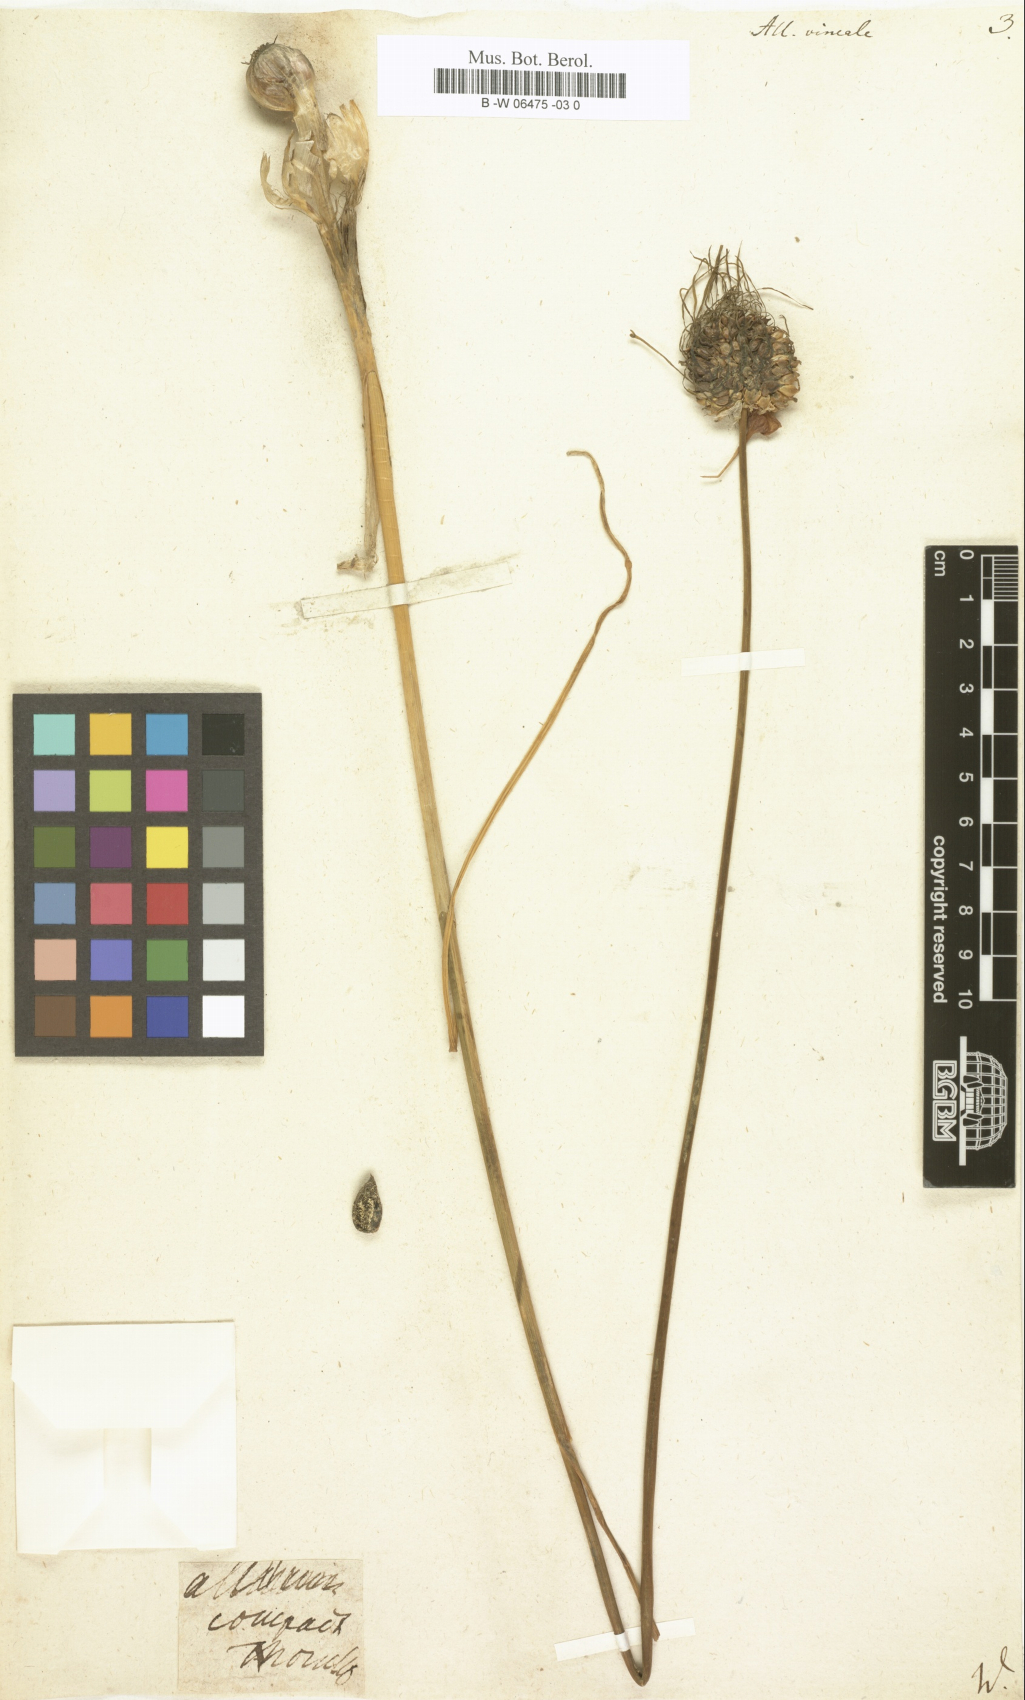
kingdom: Plantae
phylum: Tracheophyta
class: Liliopsida
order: Asparagales
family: Amaryllidaceae
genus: Allium
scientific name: Allium vineale
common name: Crow garlic
